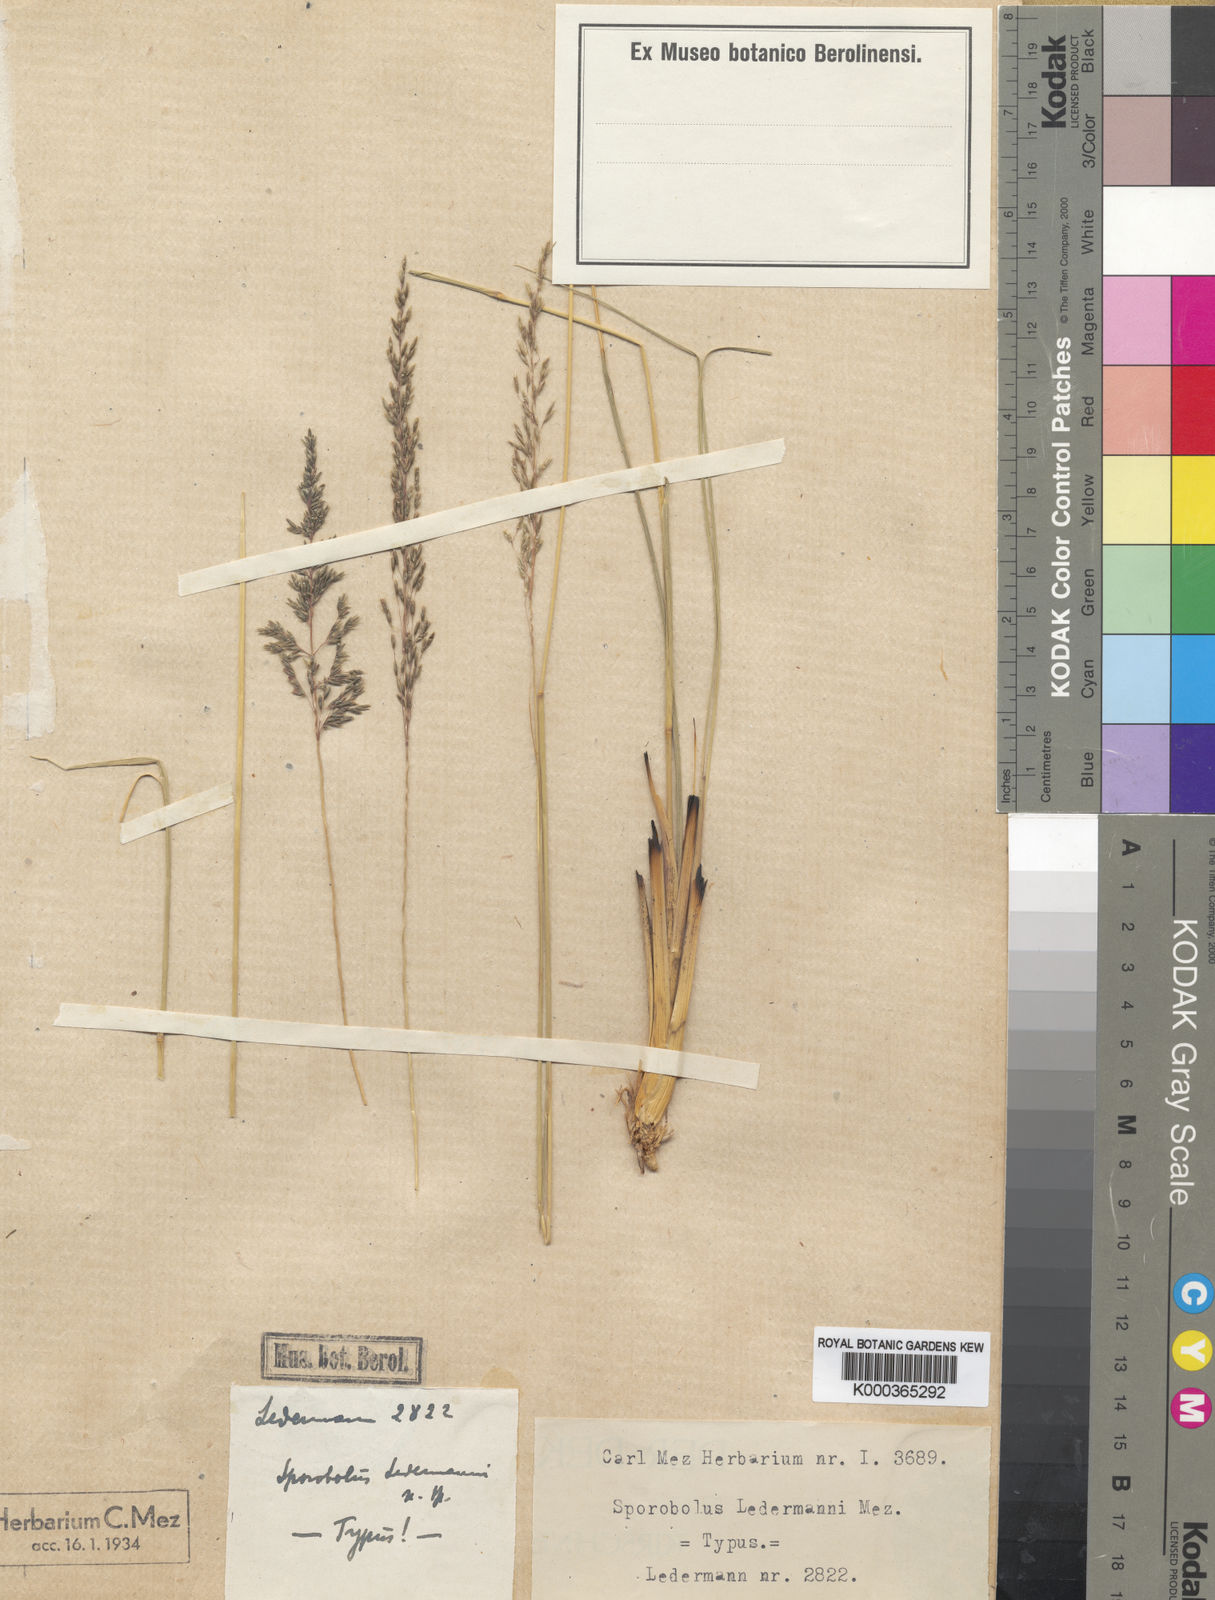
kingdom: Plantae
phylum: Tracheophyta
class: Liliopsida
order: Poales
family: Poaceae
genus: Sporobolus
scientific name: Sporobolus rigidifolius
